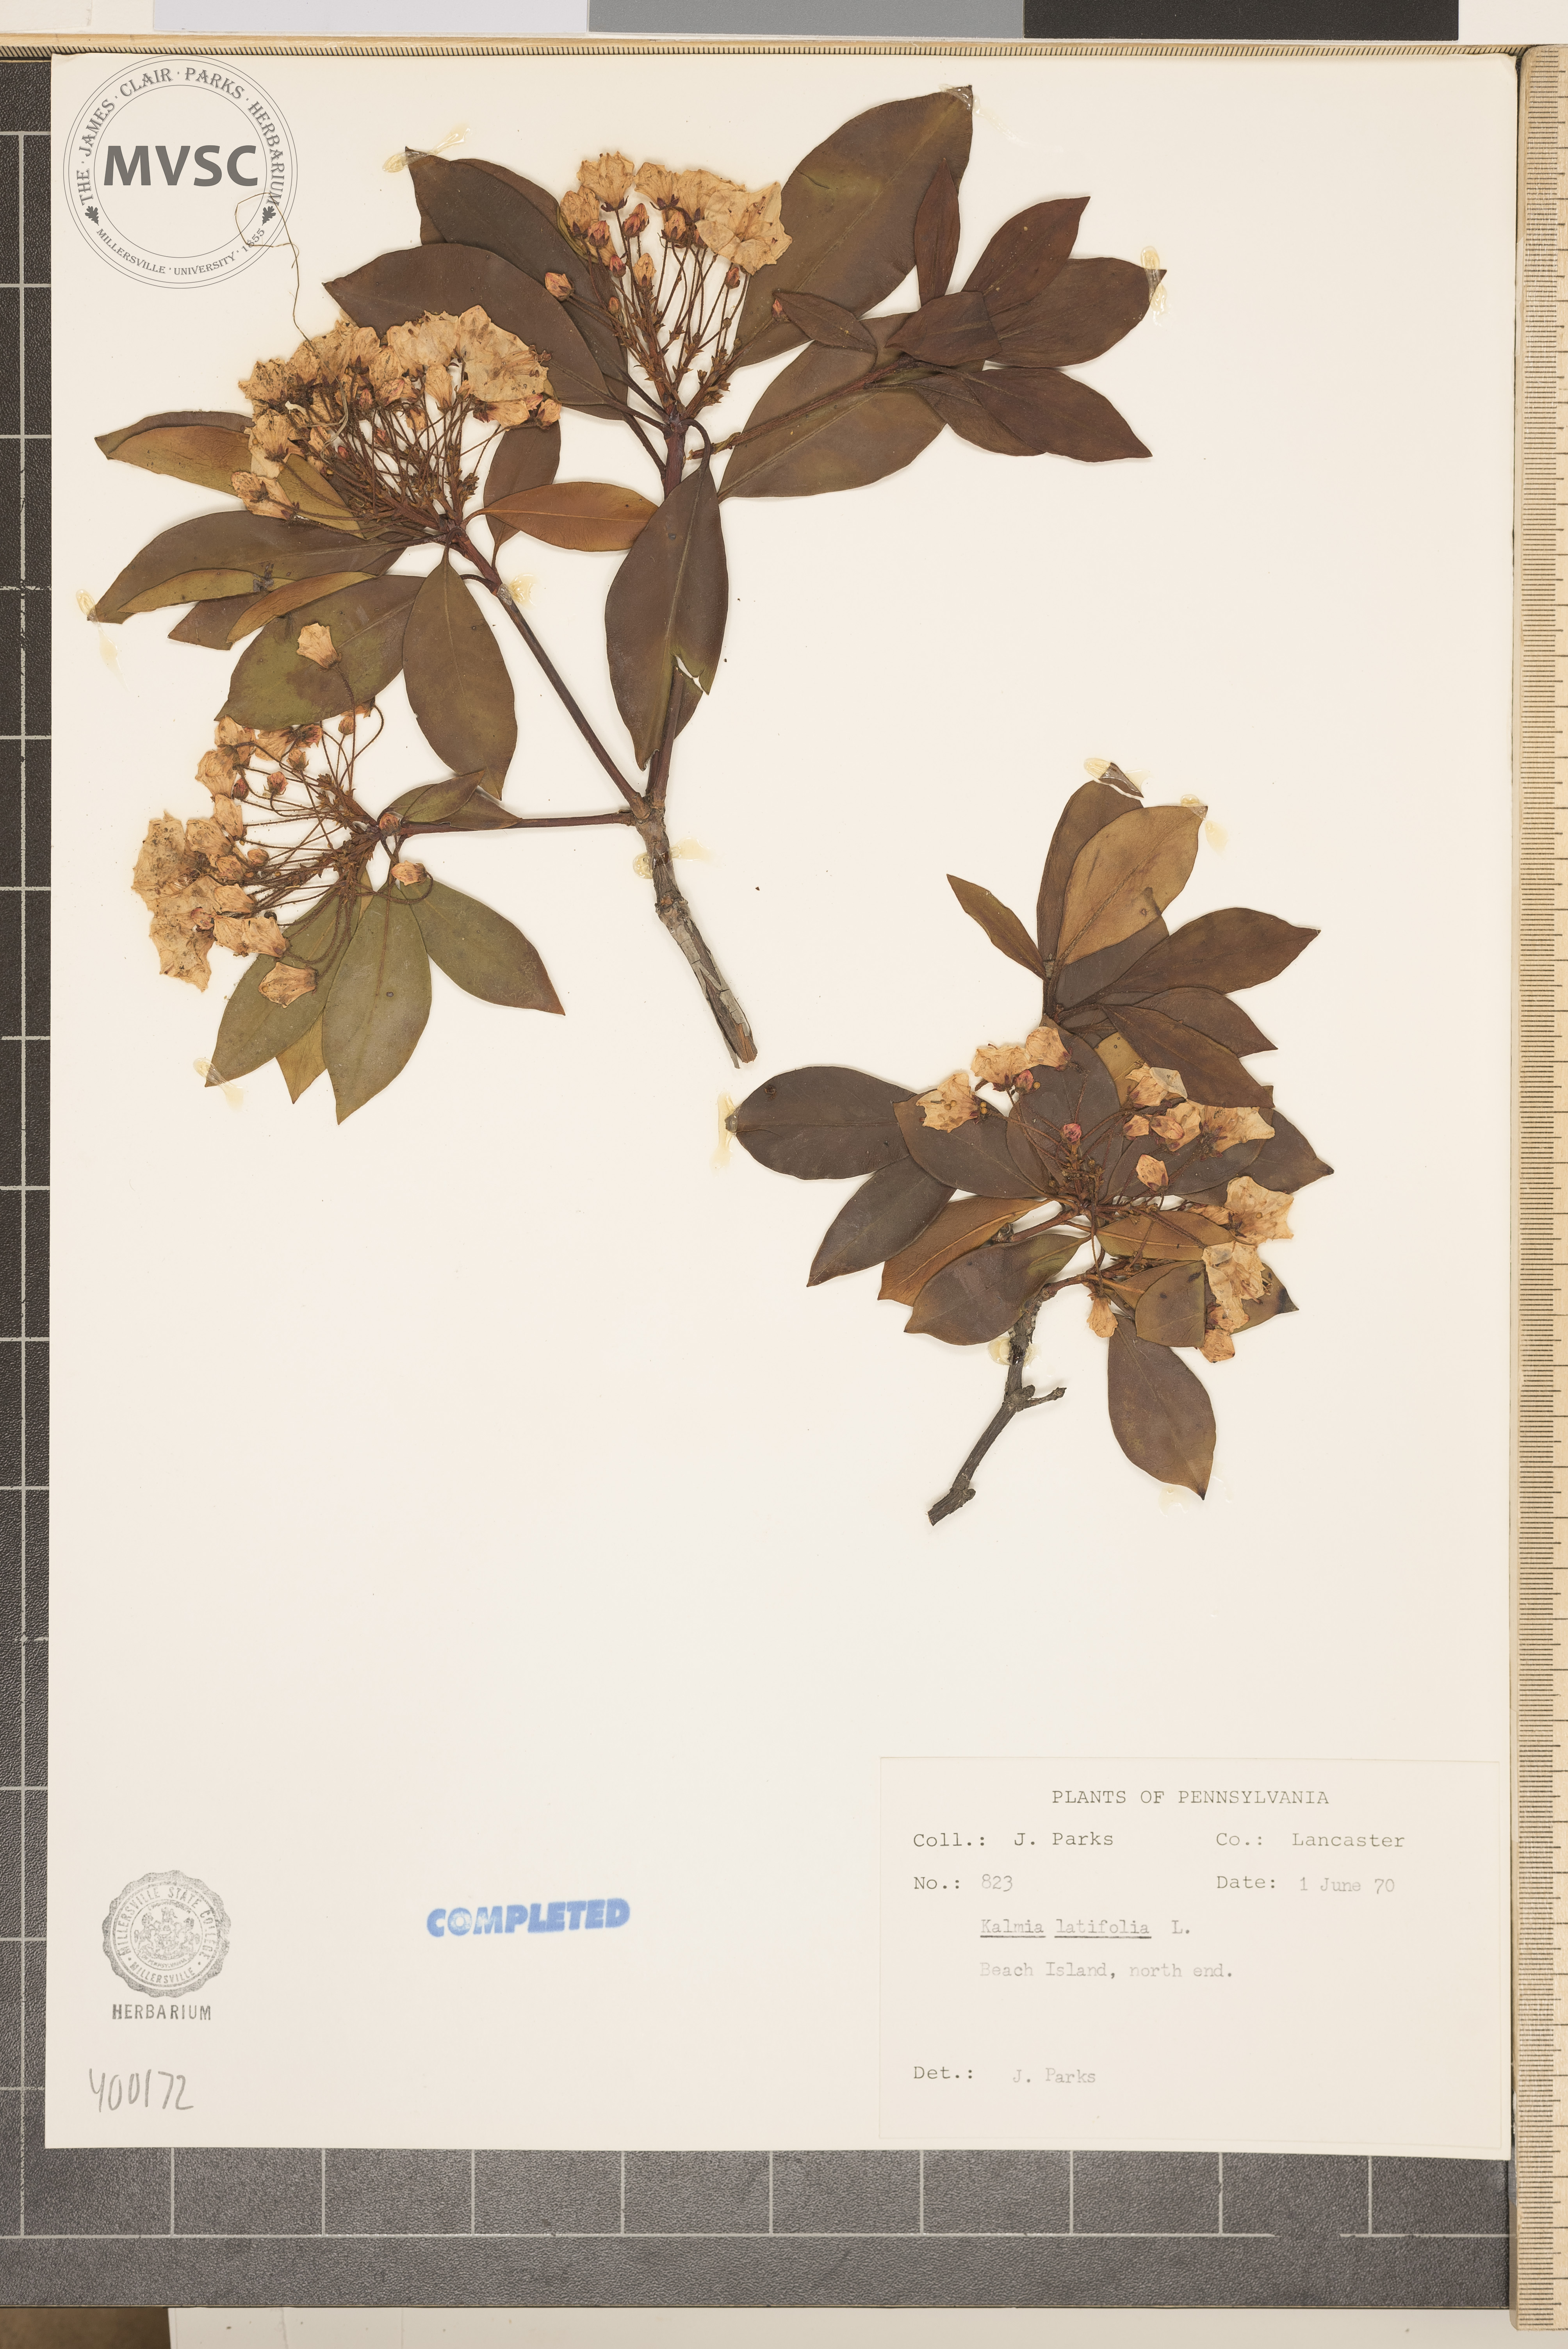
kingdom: Plantae
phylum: Tracheophyta
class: Magnoliopsida
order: Ericales
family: Ericaceae
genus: Kalmia
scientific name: Kalmia latifolia
